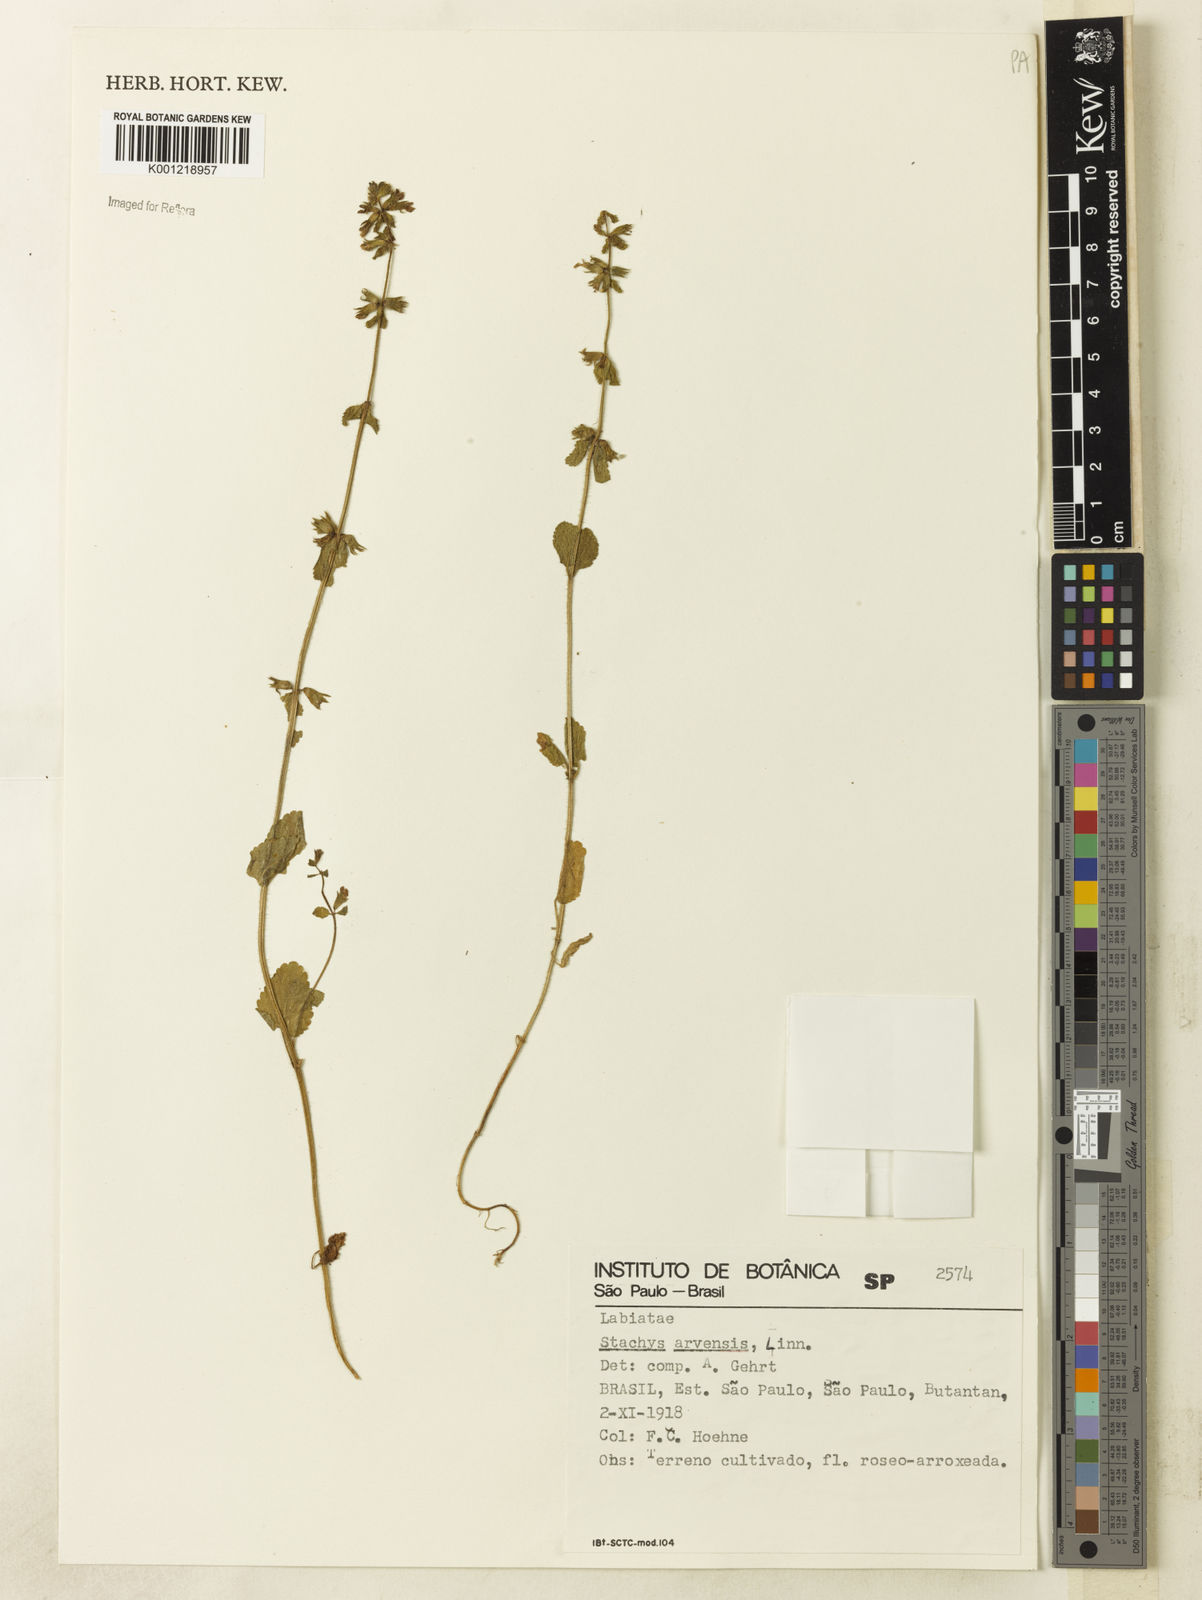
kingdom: Plantae
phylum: Tracheophyta
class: Magnoliopsida
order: Lamiales
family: Lamiaceae
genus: Stachys
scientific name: Stachys arvensis
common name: Field woundwort
